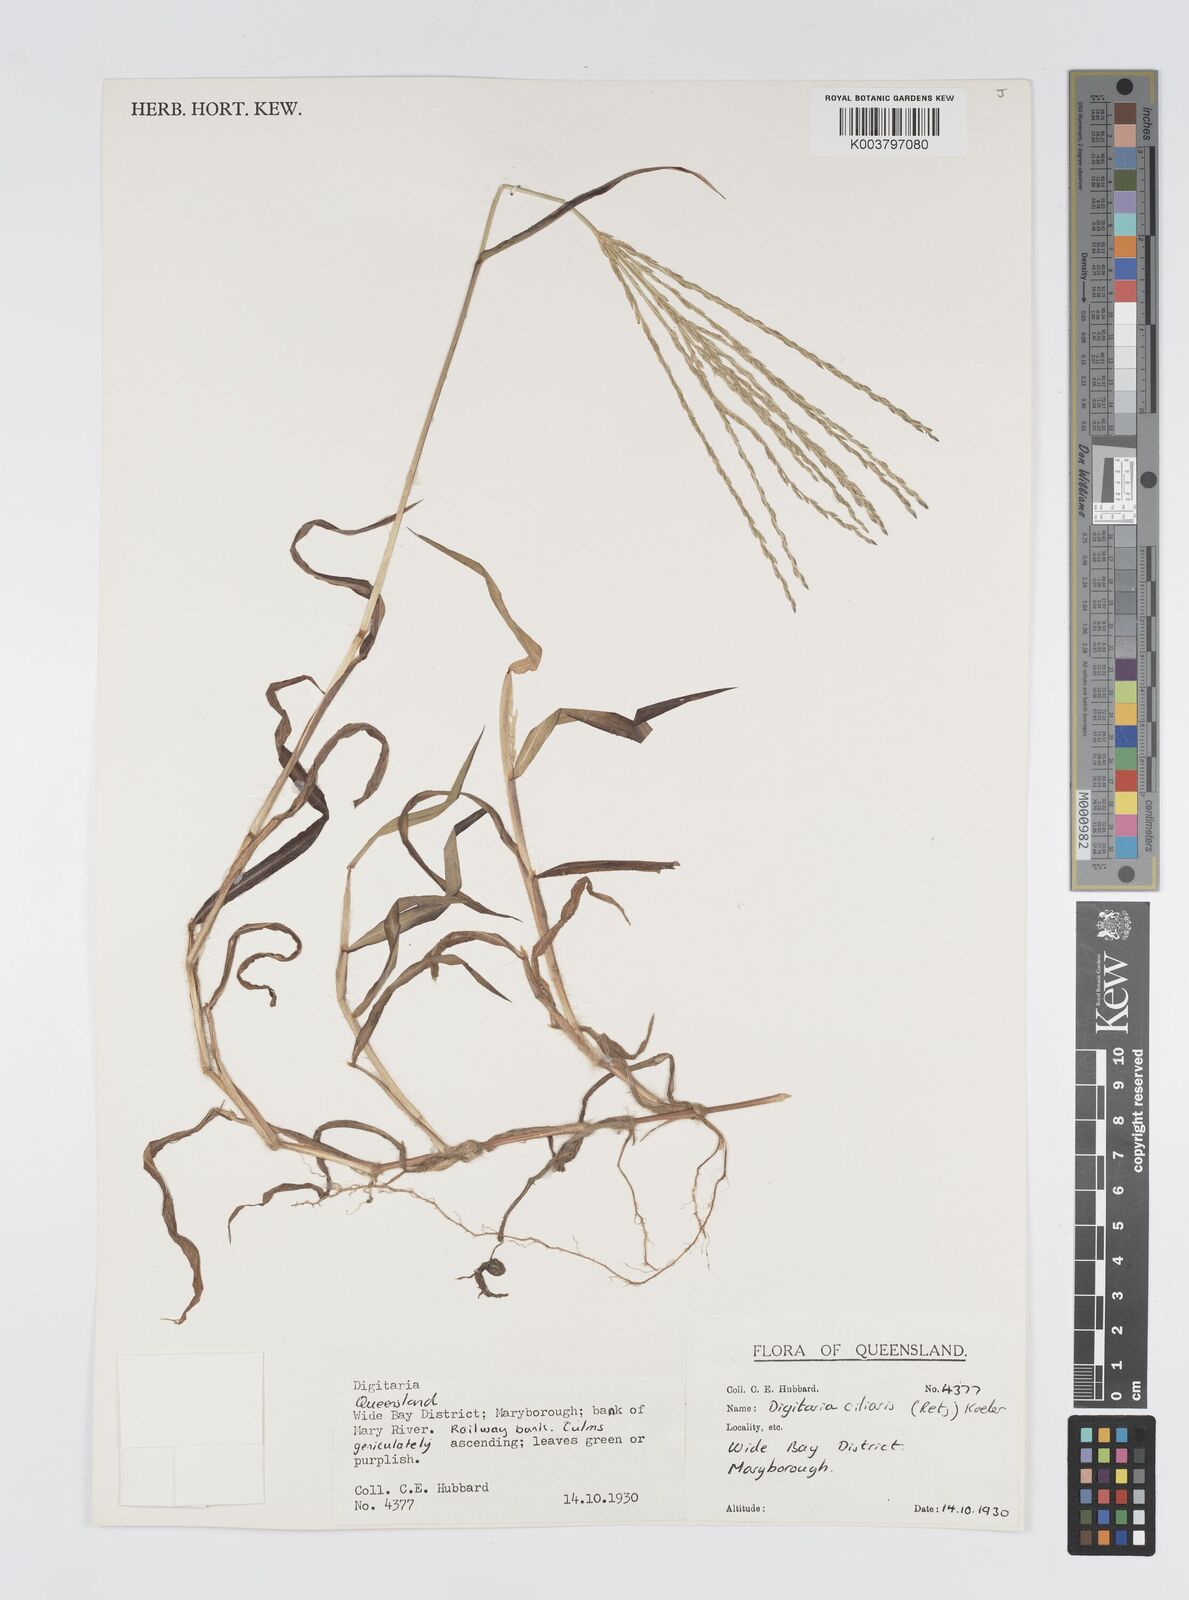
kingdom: Plantae
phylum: Tracheophyta
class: Liliopsida
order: Poales
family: Poaceae
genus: Digitaria
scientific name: Digitaria ciliaris
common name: Tropical finger-grass
